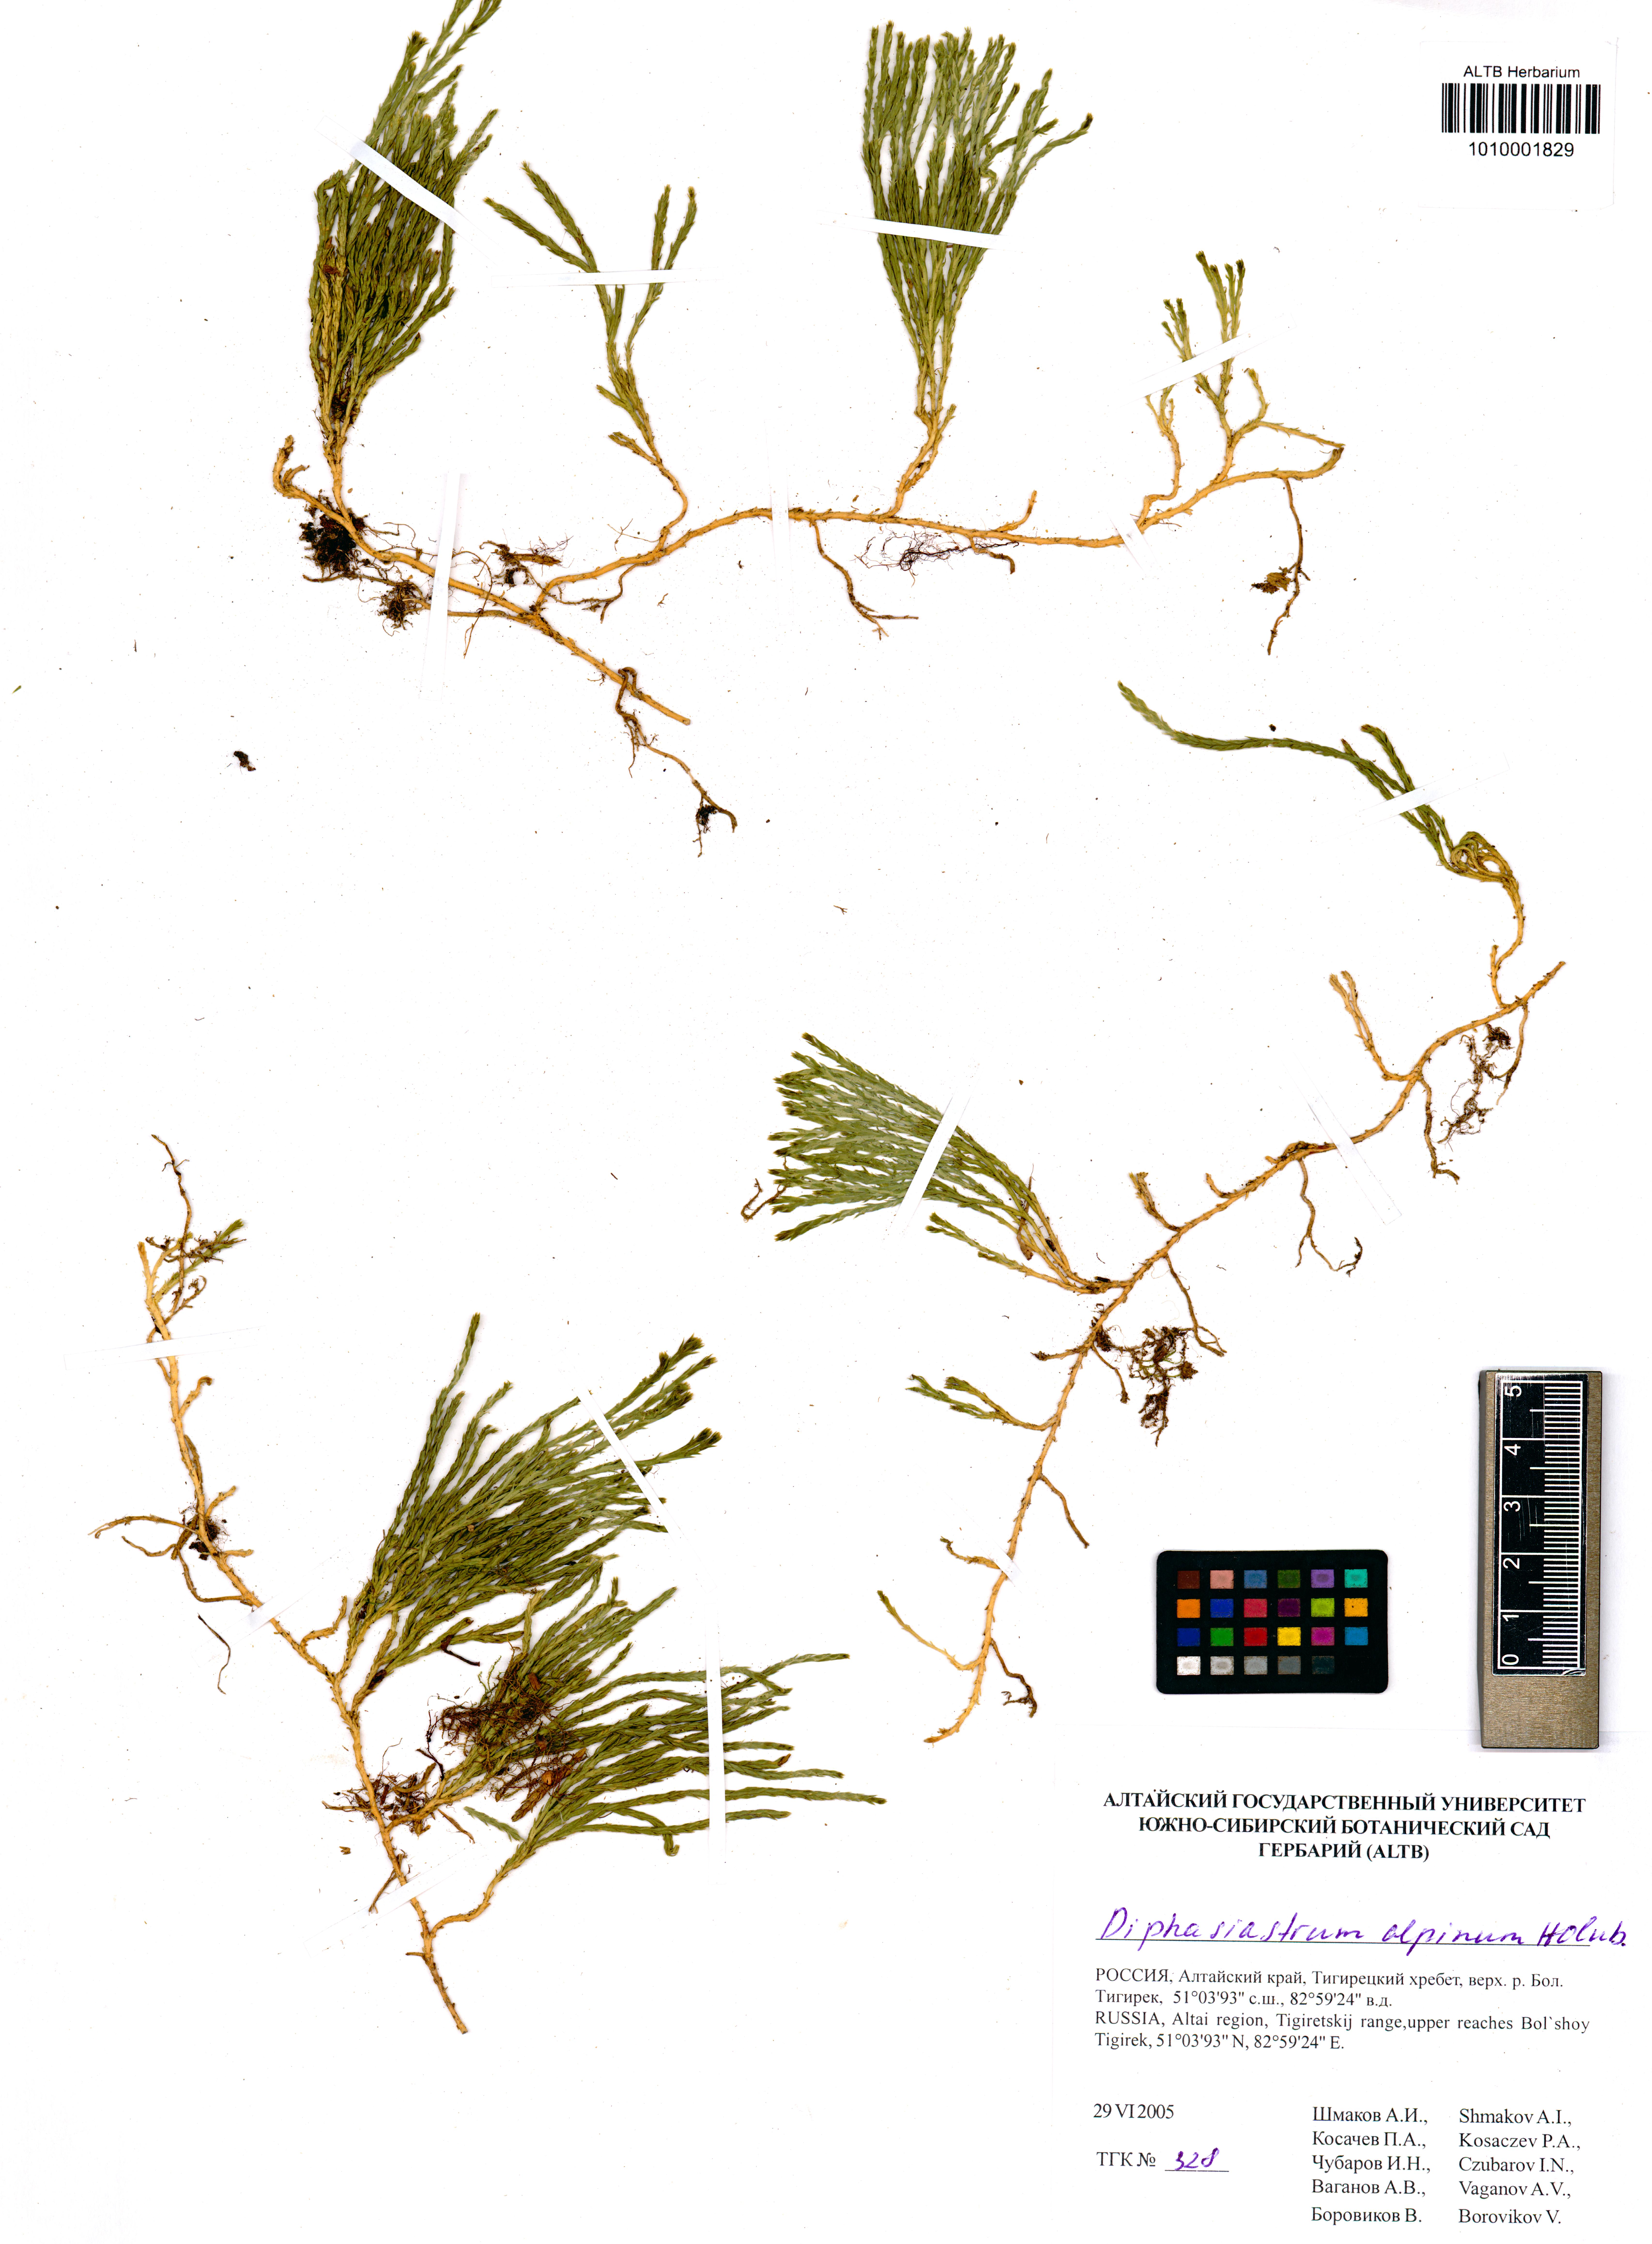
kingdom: Plantae
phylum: Tracheophyta
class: Lycopodiopsida
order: Lycopodiales
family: Lycopodiaceae
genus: Diphasiastrum
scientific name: Diphasiastrum alpinum
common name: Alpine clubmoss
